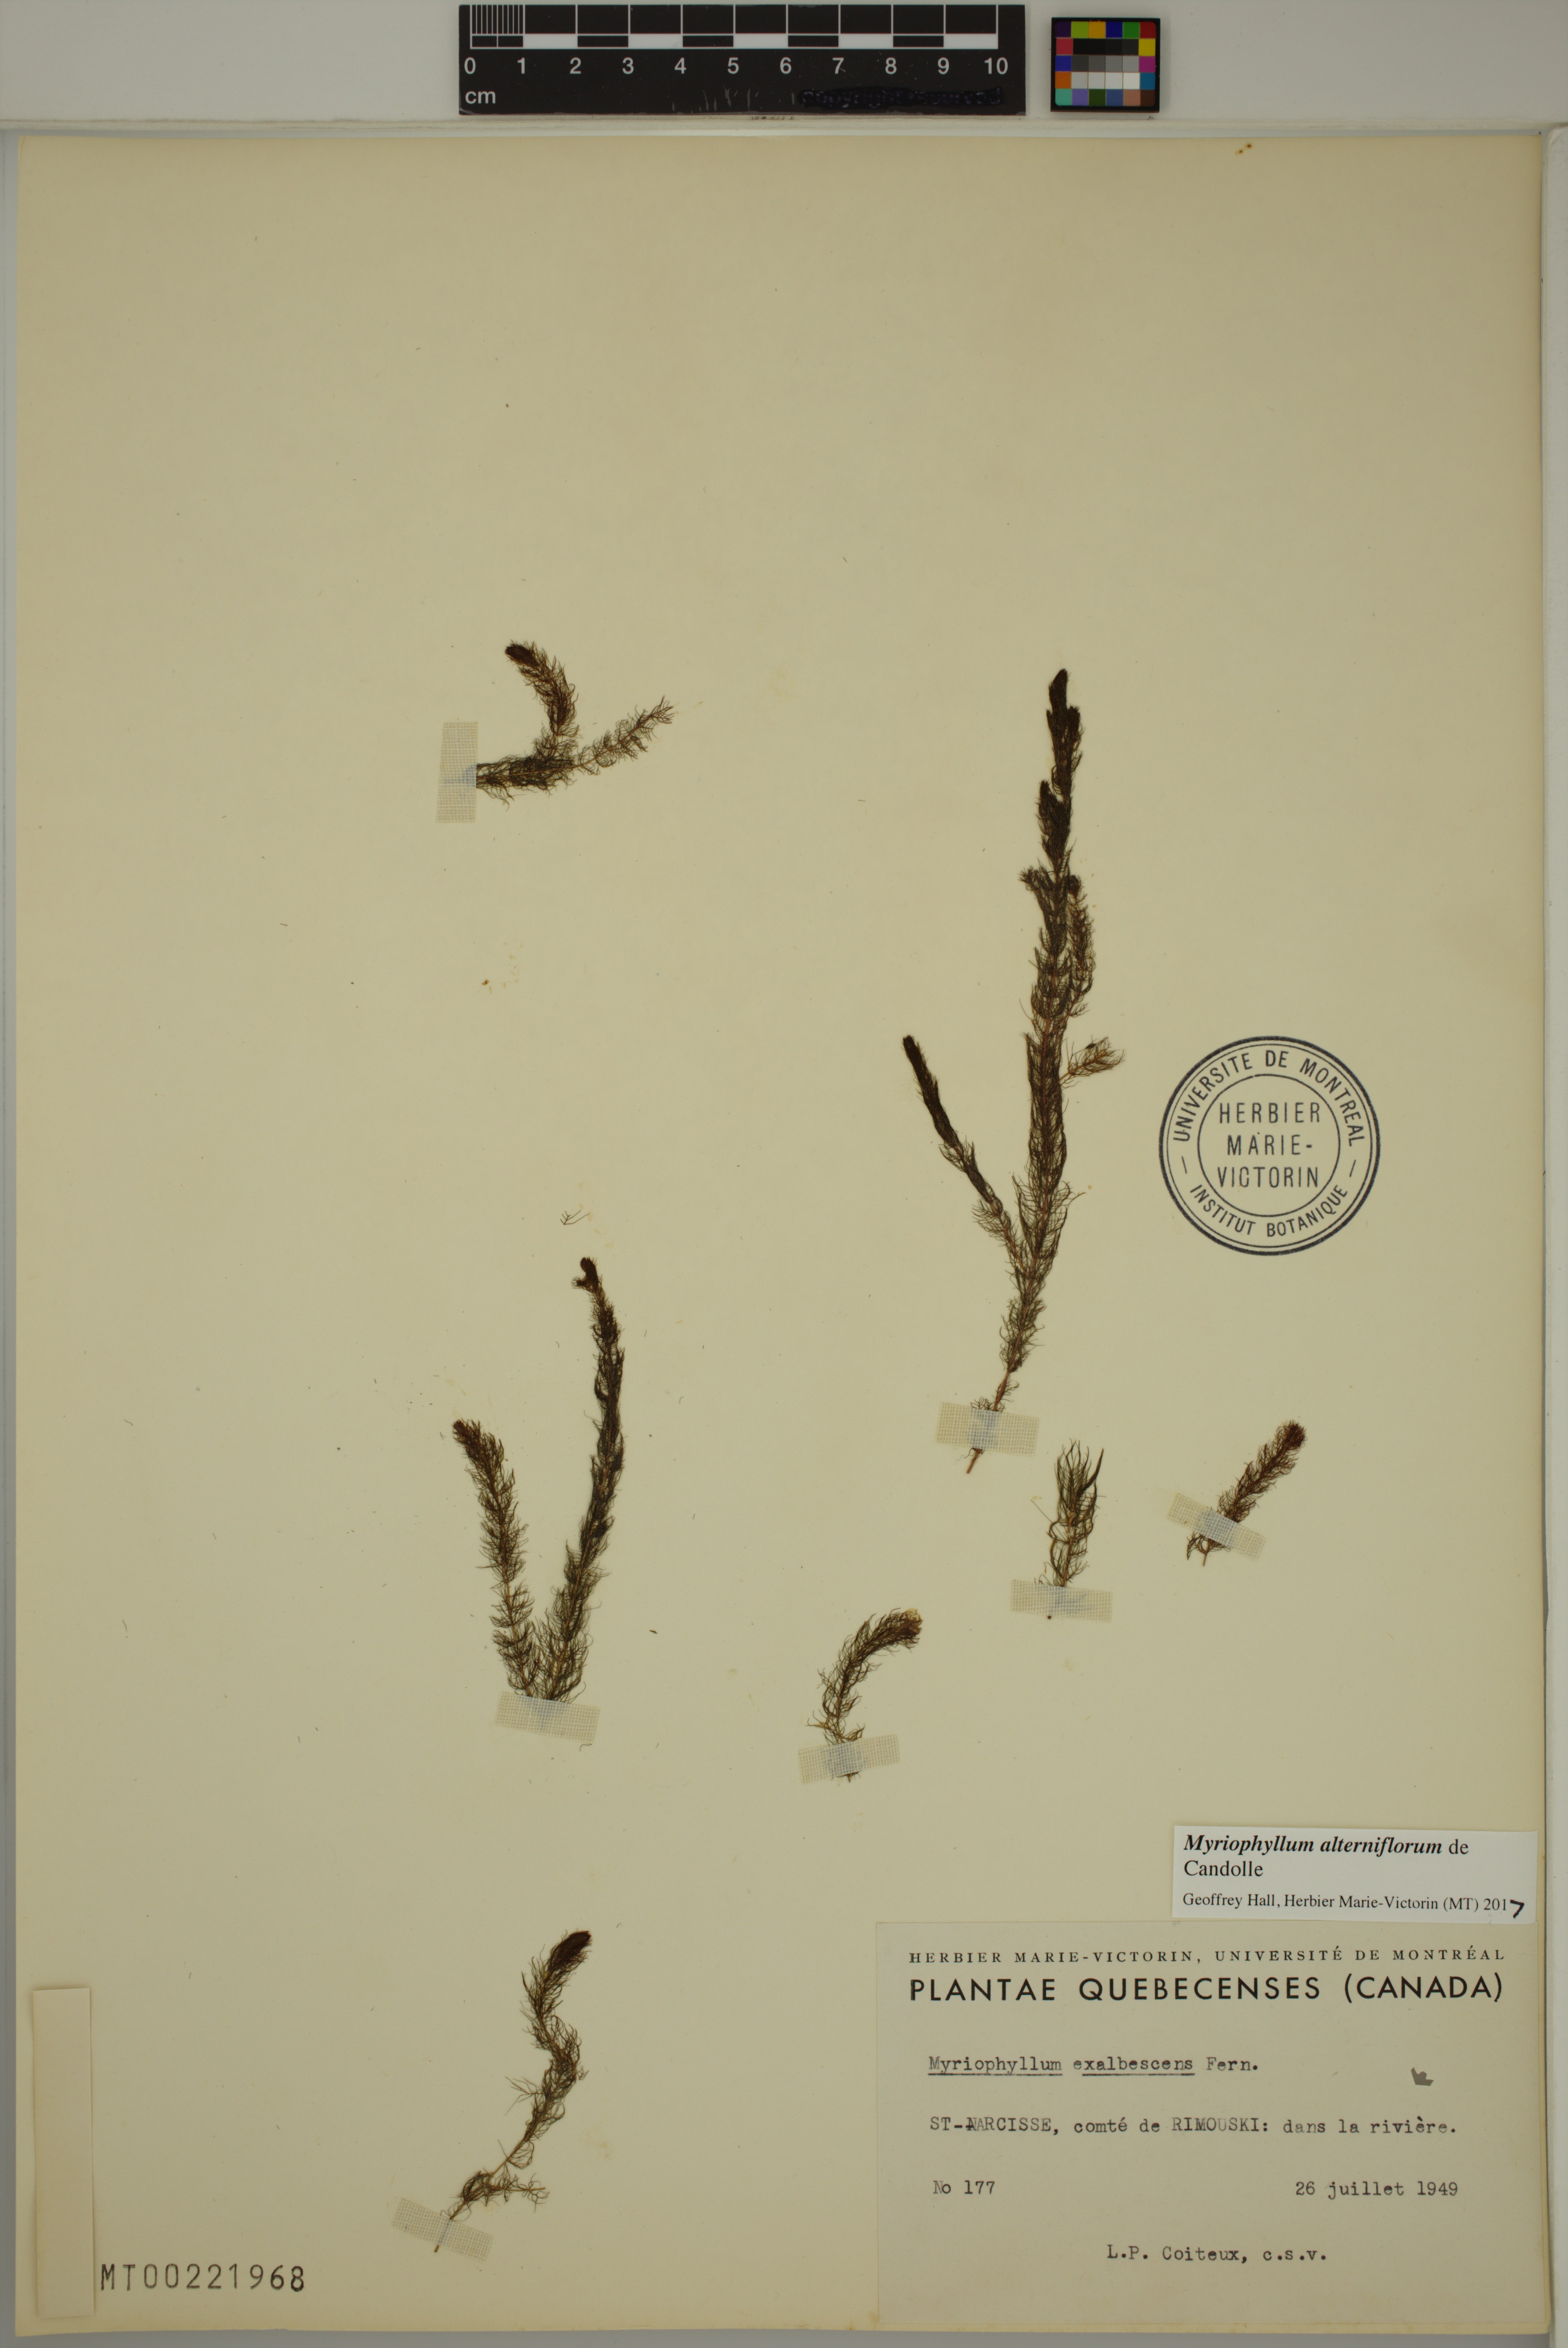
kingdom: Plantae
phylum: Tracheophyta
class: Magnoliopsida
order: Saxifragales
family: Haloragaceae
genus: Myriophyllum
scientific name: Myriophyllum alterniflorum
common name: Alternate water-milfoil
